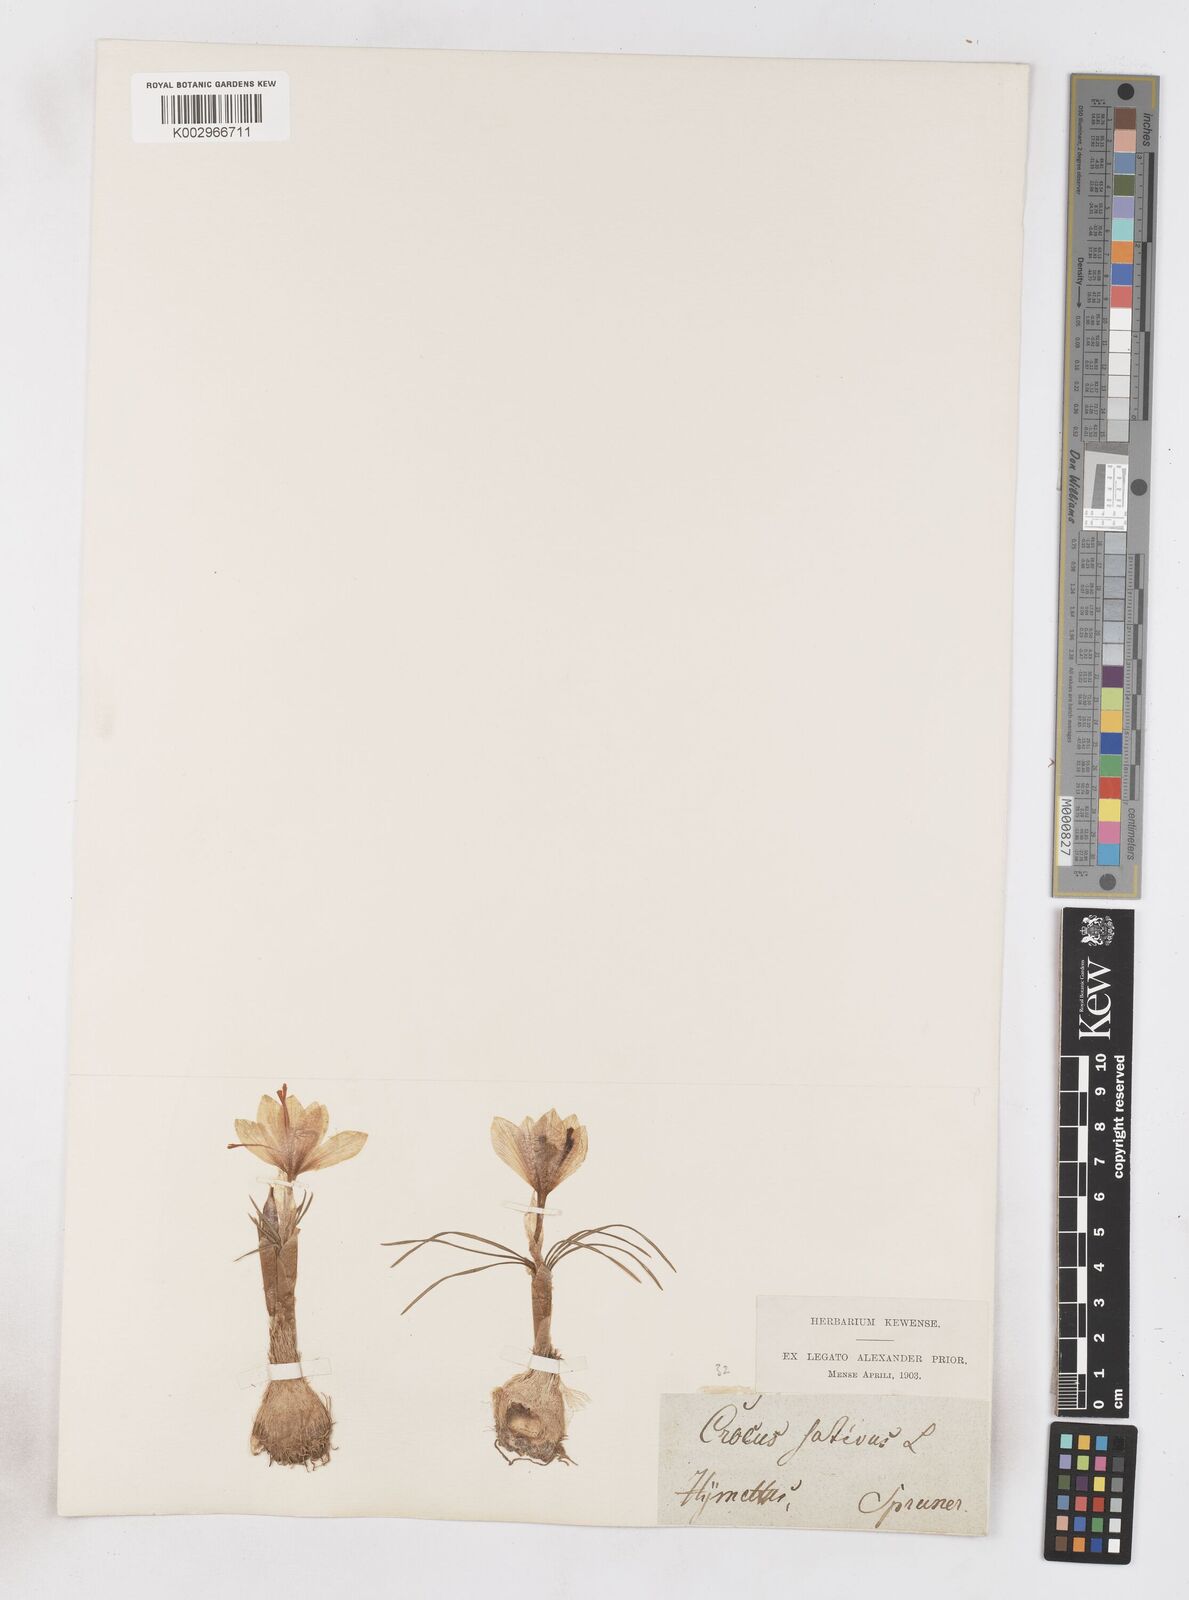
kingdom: Plantae
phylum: Tracheophyta
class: Liliopsida
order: Asparagales
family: Iridaceae
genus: Crocus
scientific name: Crocus cartwrightianus
